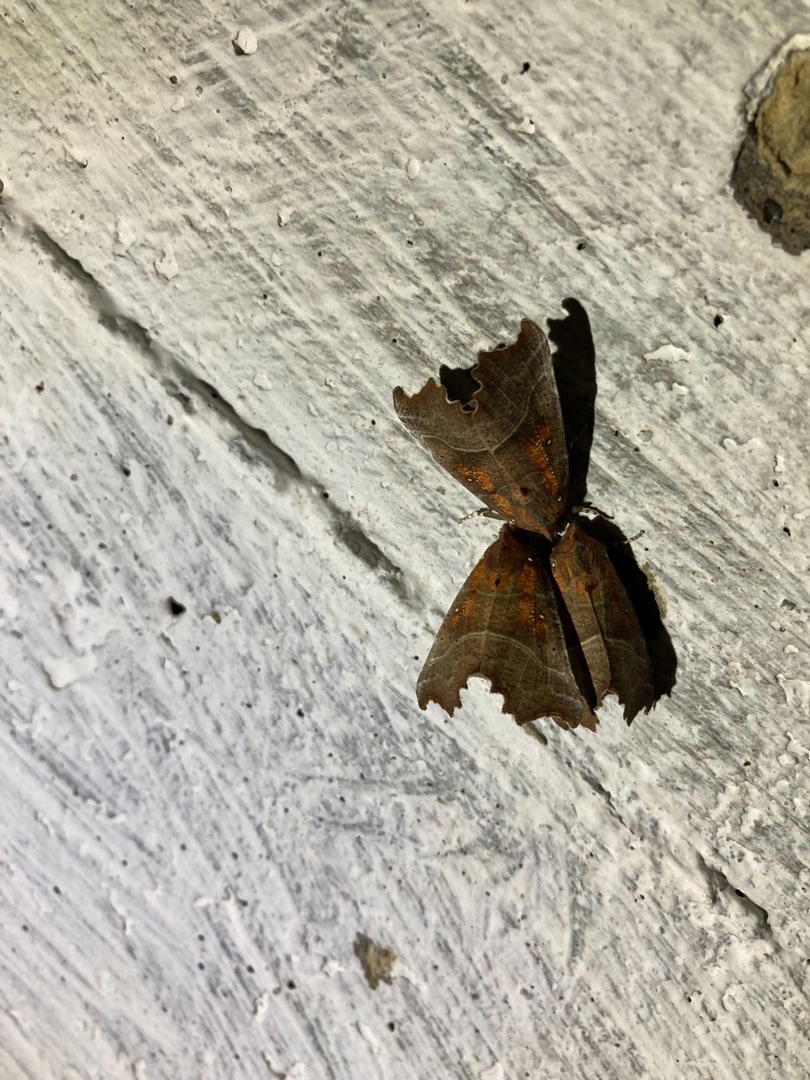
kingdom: Animalia
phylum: Arthropoda
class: Insecta
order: Lepidoptera
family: Erebidae
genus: Scoliopteryx
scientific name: Scoliopteryx libatrix
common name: Husmoderugle
